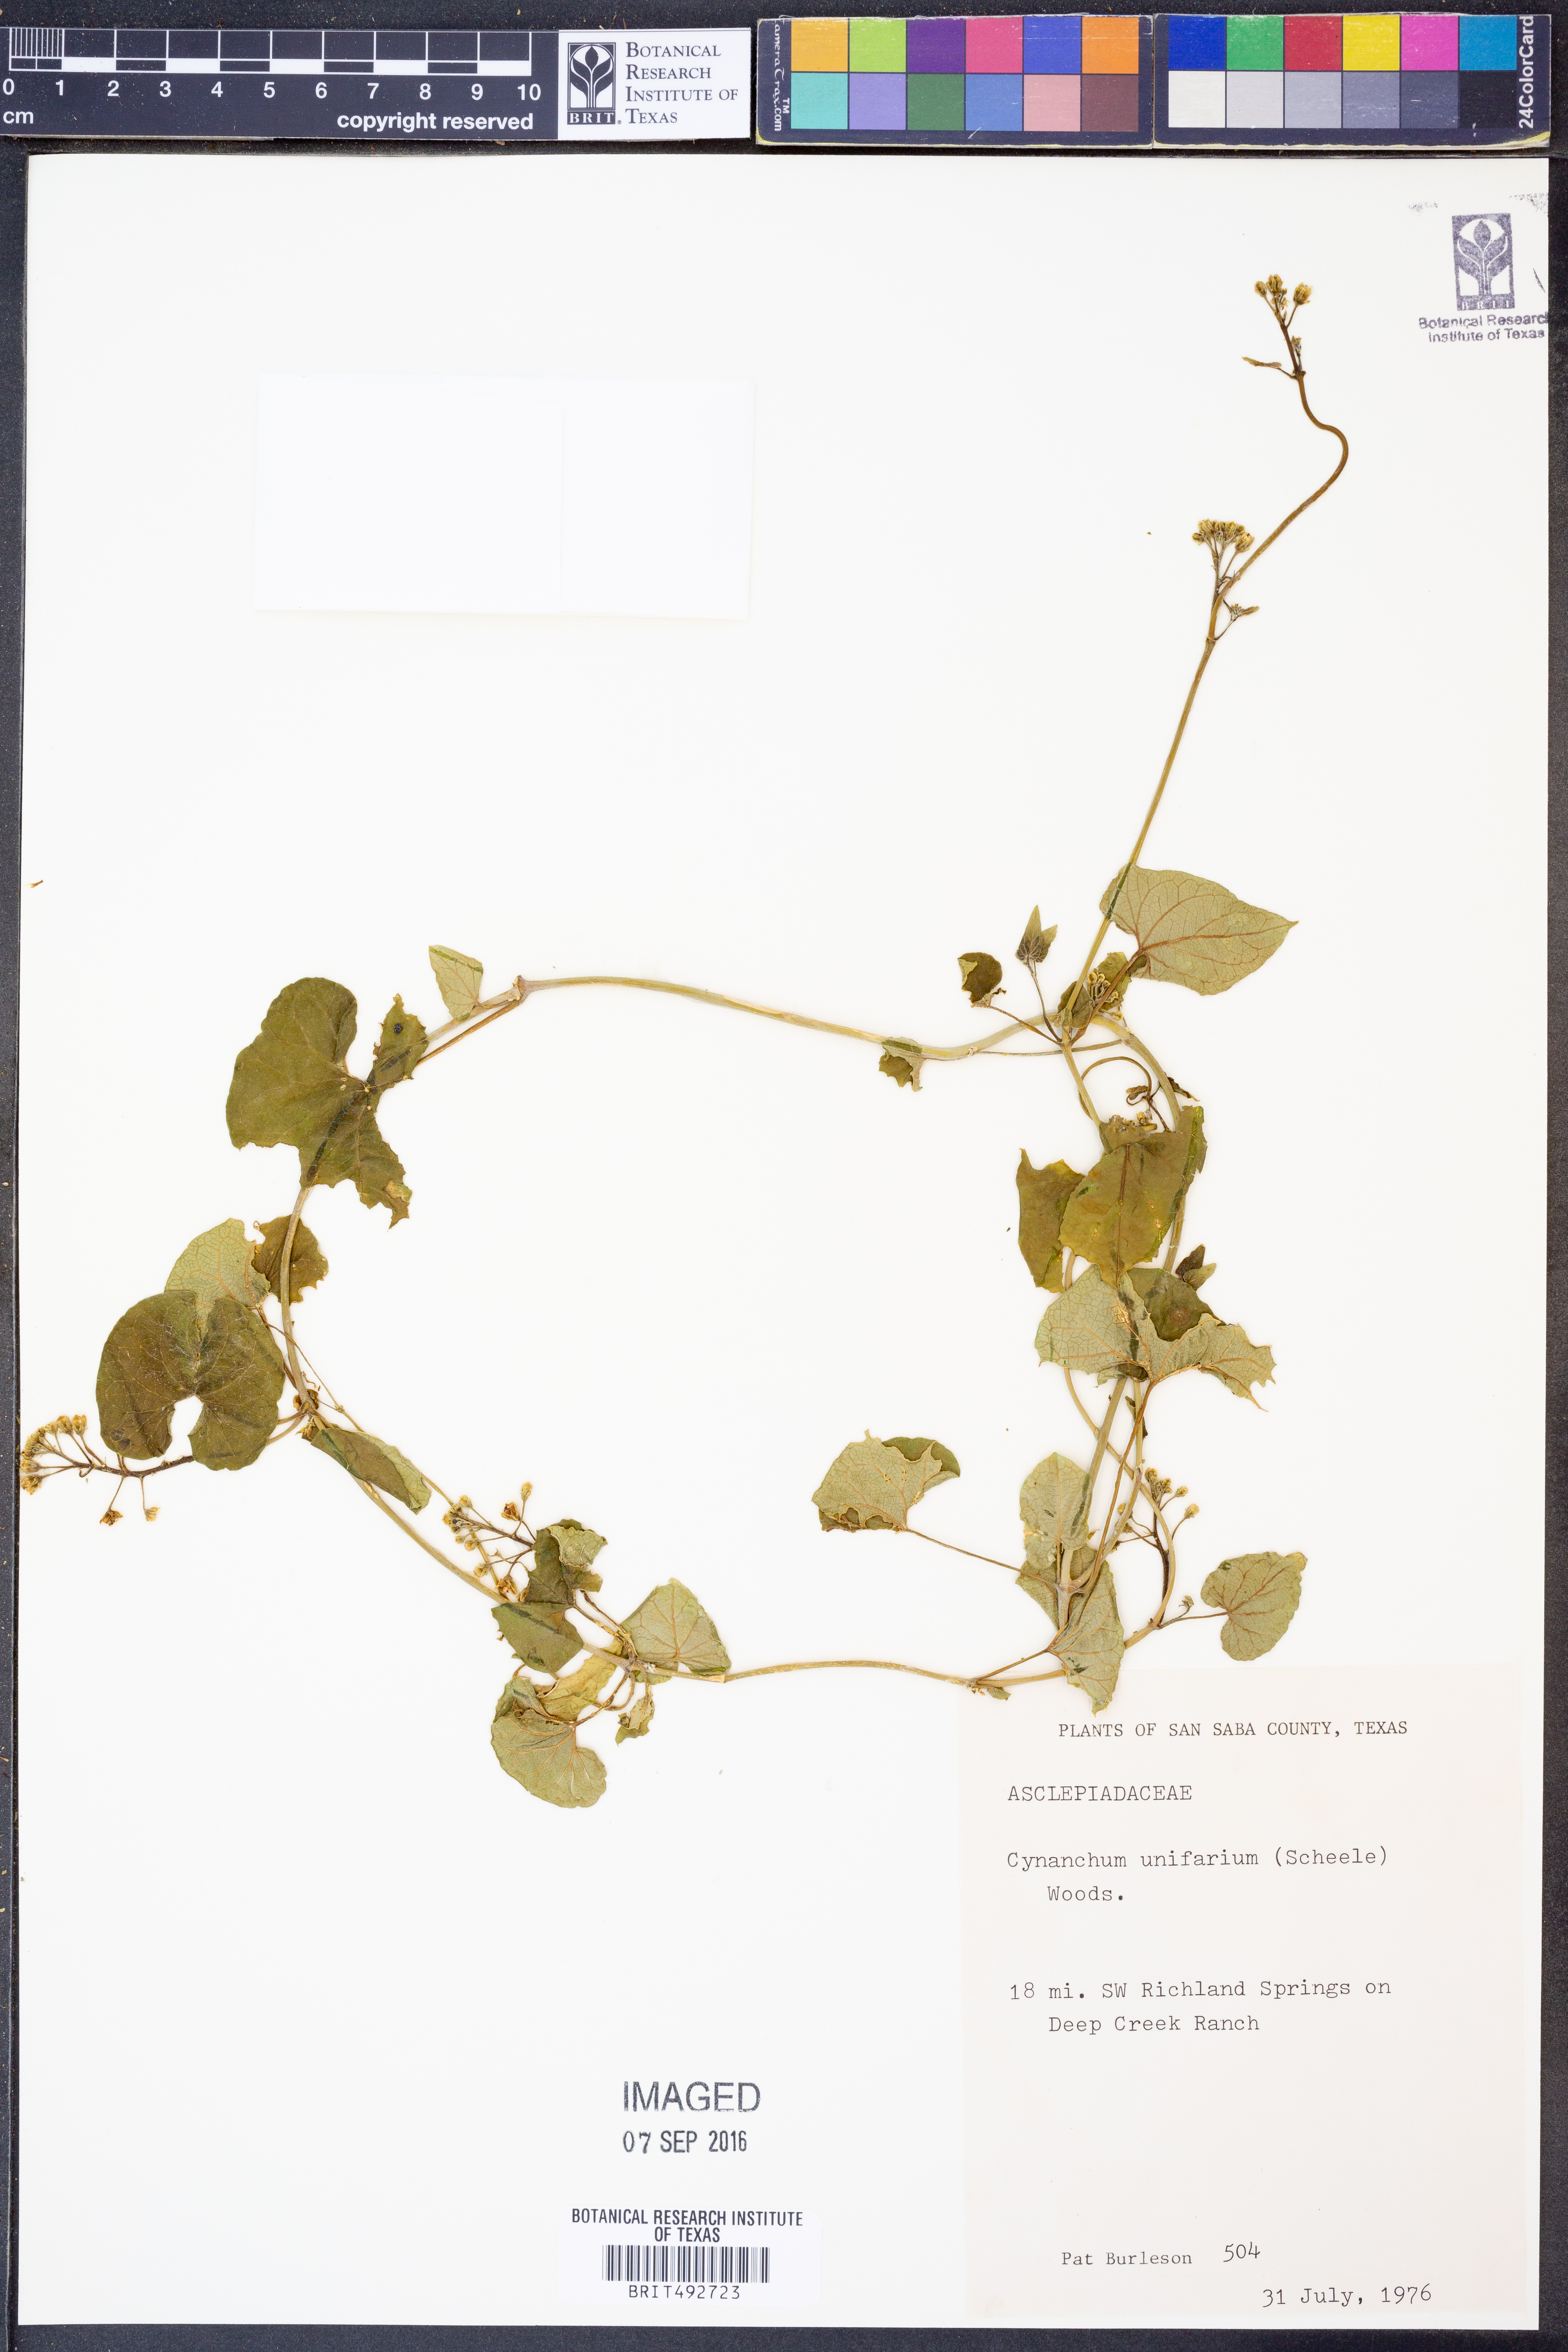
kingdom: Plantae
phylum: Tracheophyta
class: Magnoliopsida
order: Gentianales
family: Apocynaceae
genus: Cynanchum
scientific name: Cynanchum racemosum
